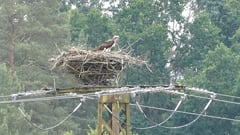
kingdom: Animalia
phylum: Chordata
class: Aves
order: Accipitriformes
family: Pandionidae
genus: Pandion
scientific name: Pandion haliaetus
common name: Osprey
